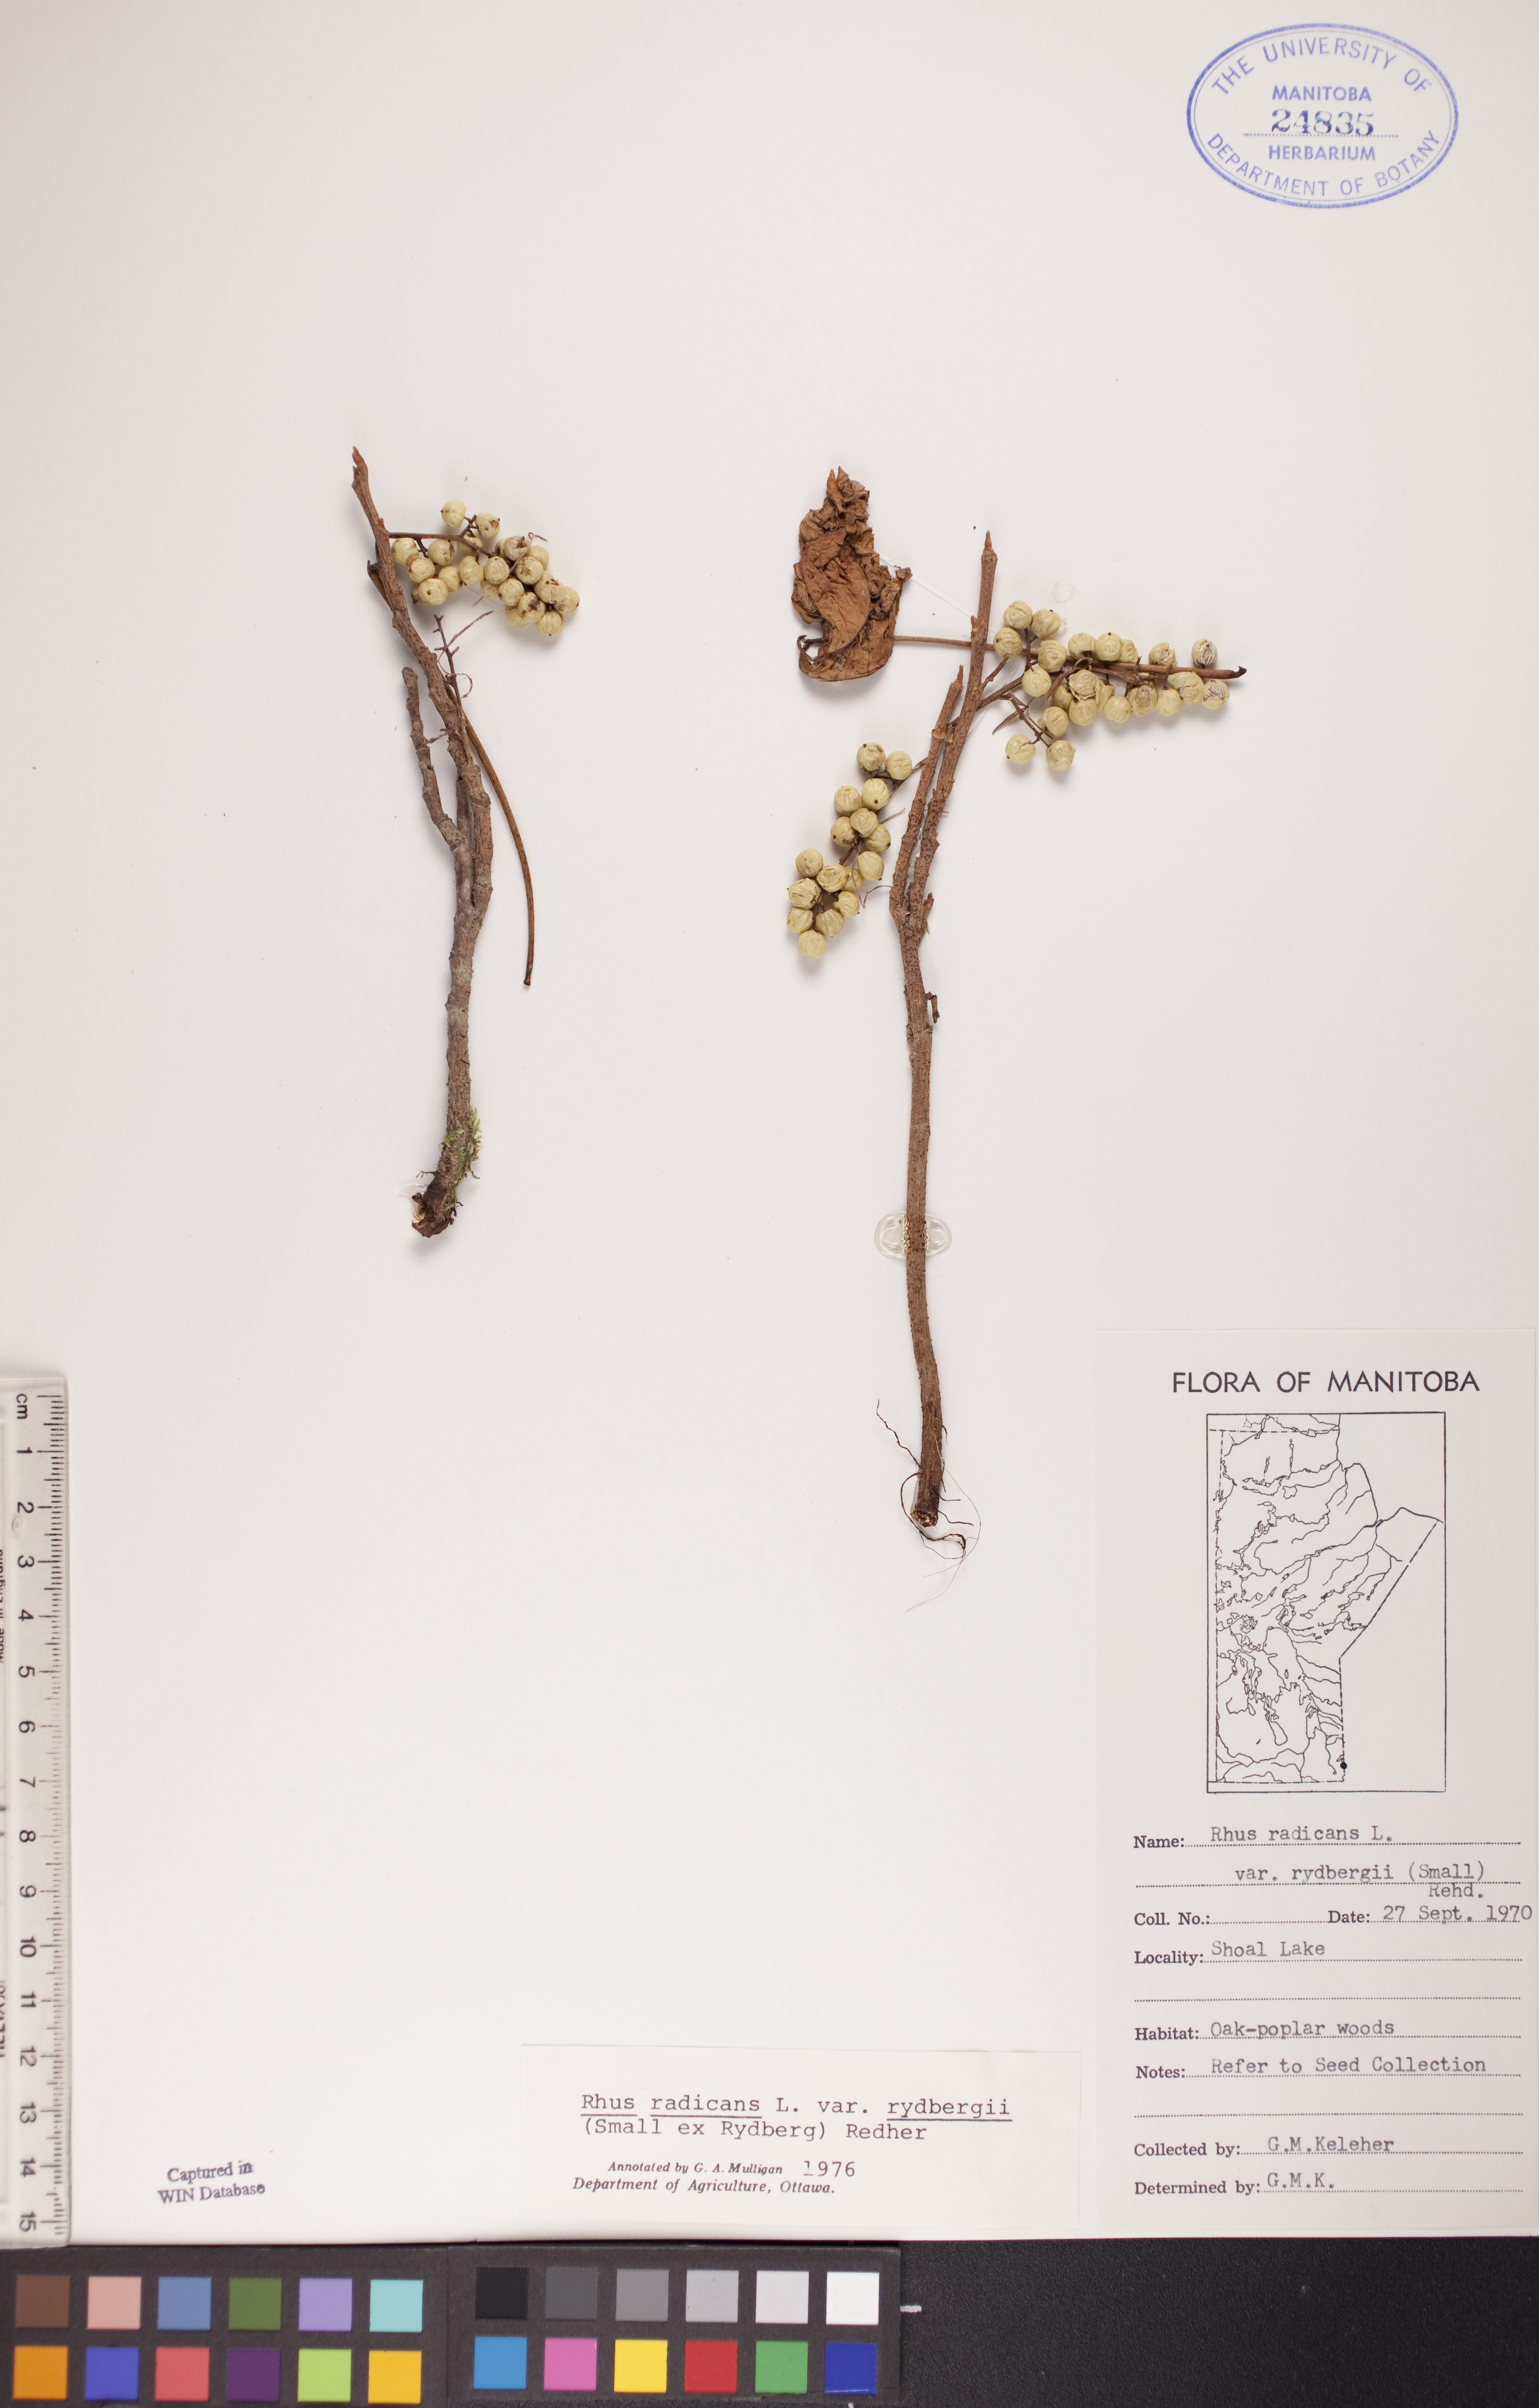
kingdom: Plantae
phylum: Tracheophyta
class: Magnoliopsida
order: Sapindales
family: Anacardiaceae
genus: Toxicodendron
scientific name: Toxicodendron rydbergii
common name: Rydberg's poison-ivy
